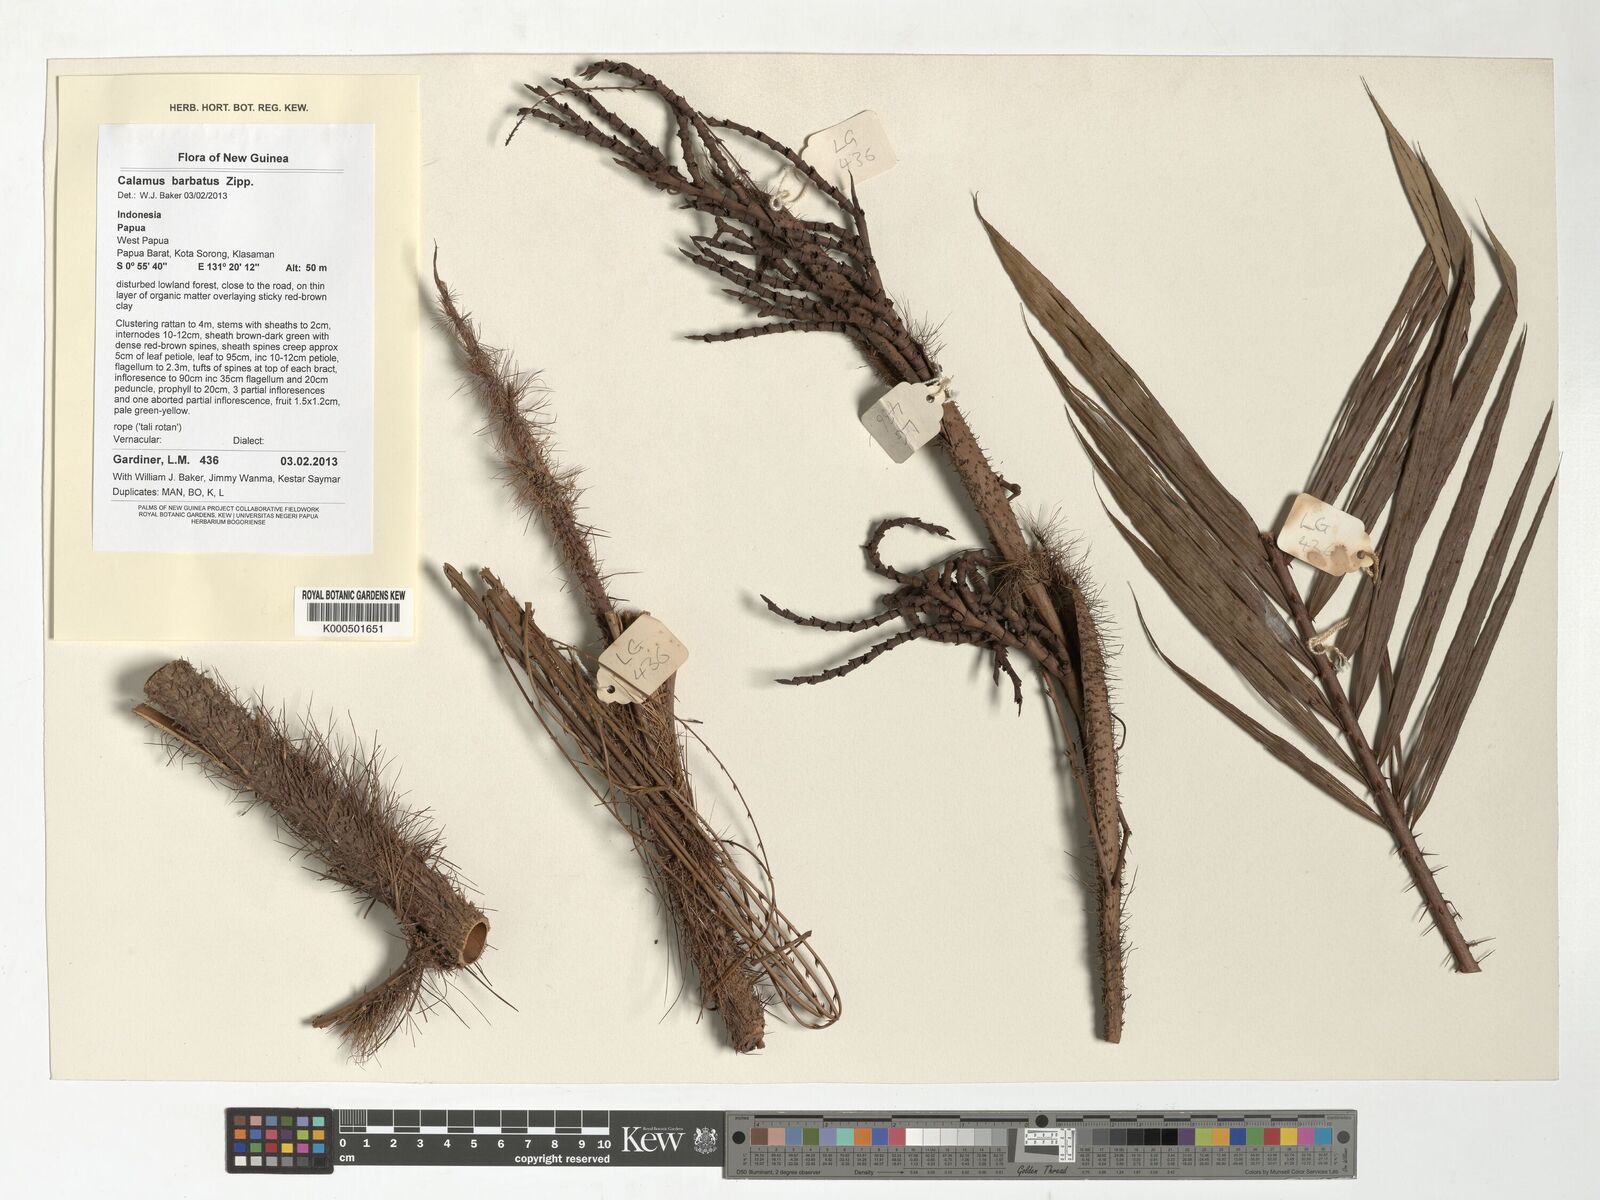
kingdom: Plantae
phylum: Tracheophyta
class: Liliopsida
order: Arecales
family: Arecaceae
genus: Calamus
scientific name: Calamus barbatus
